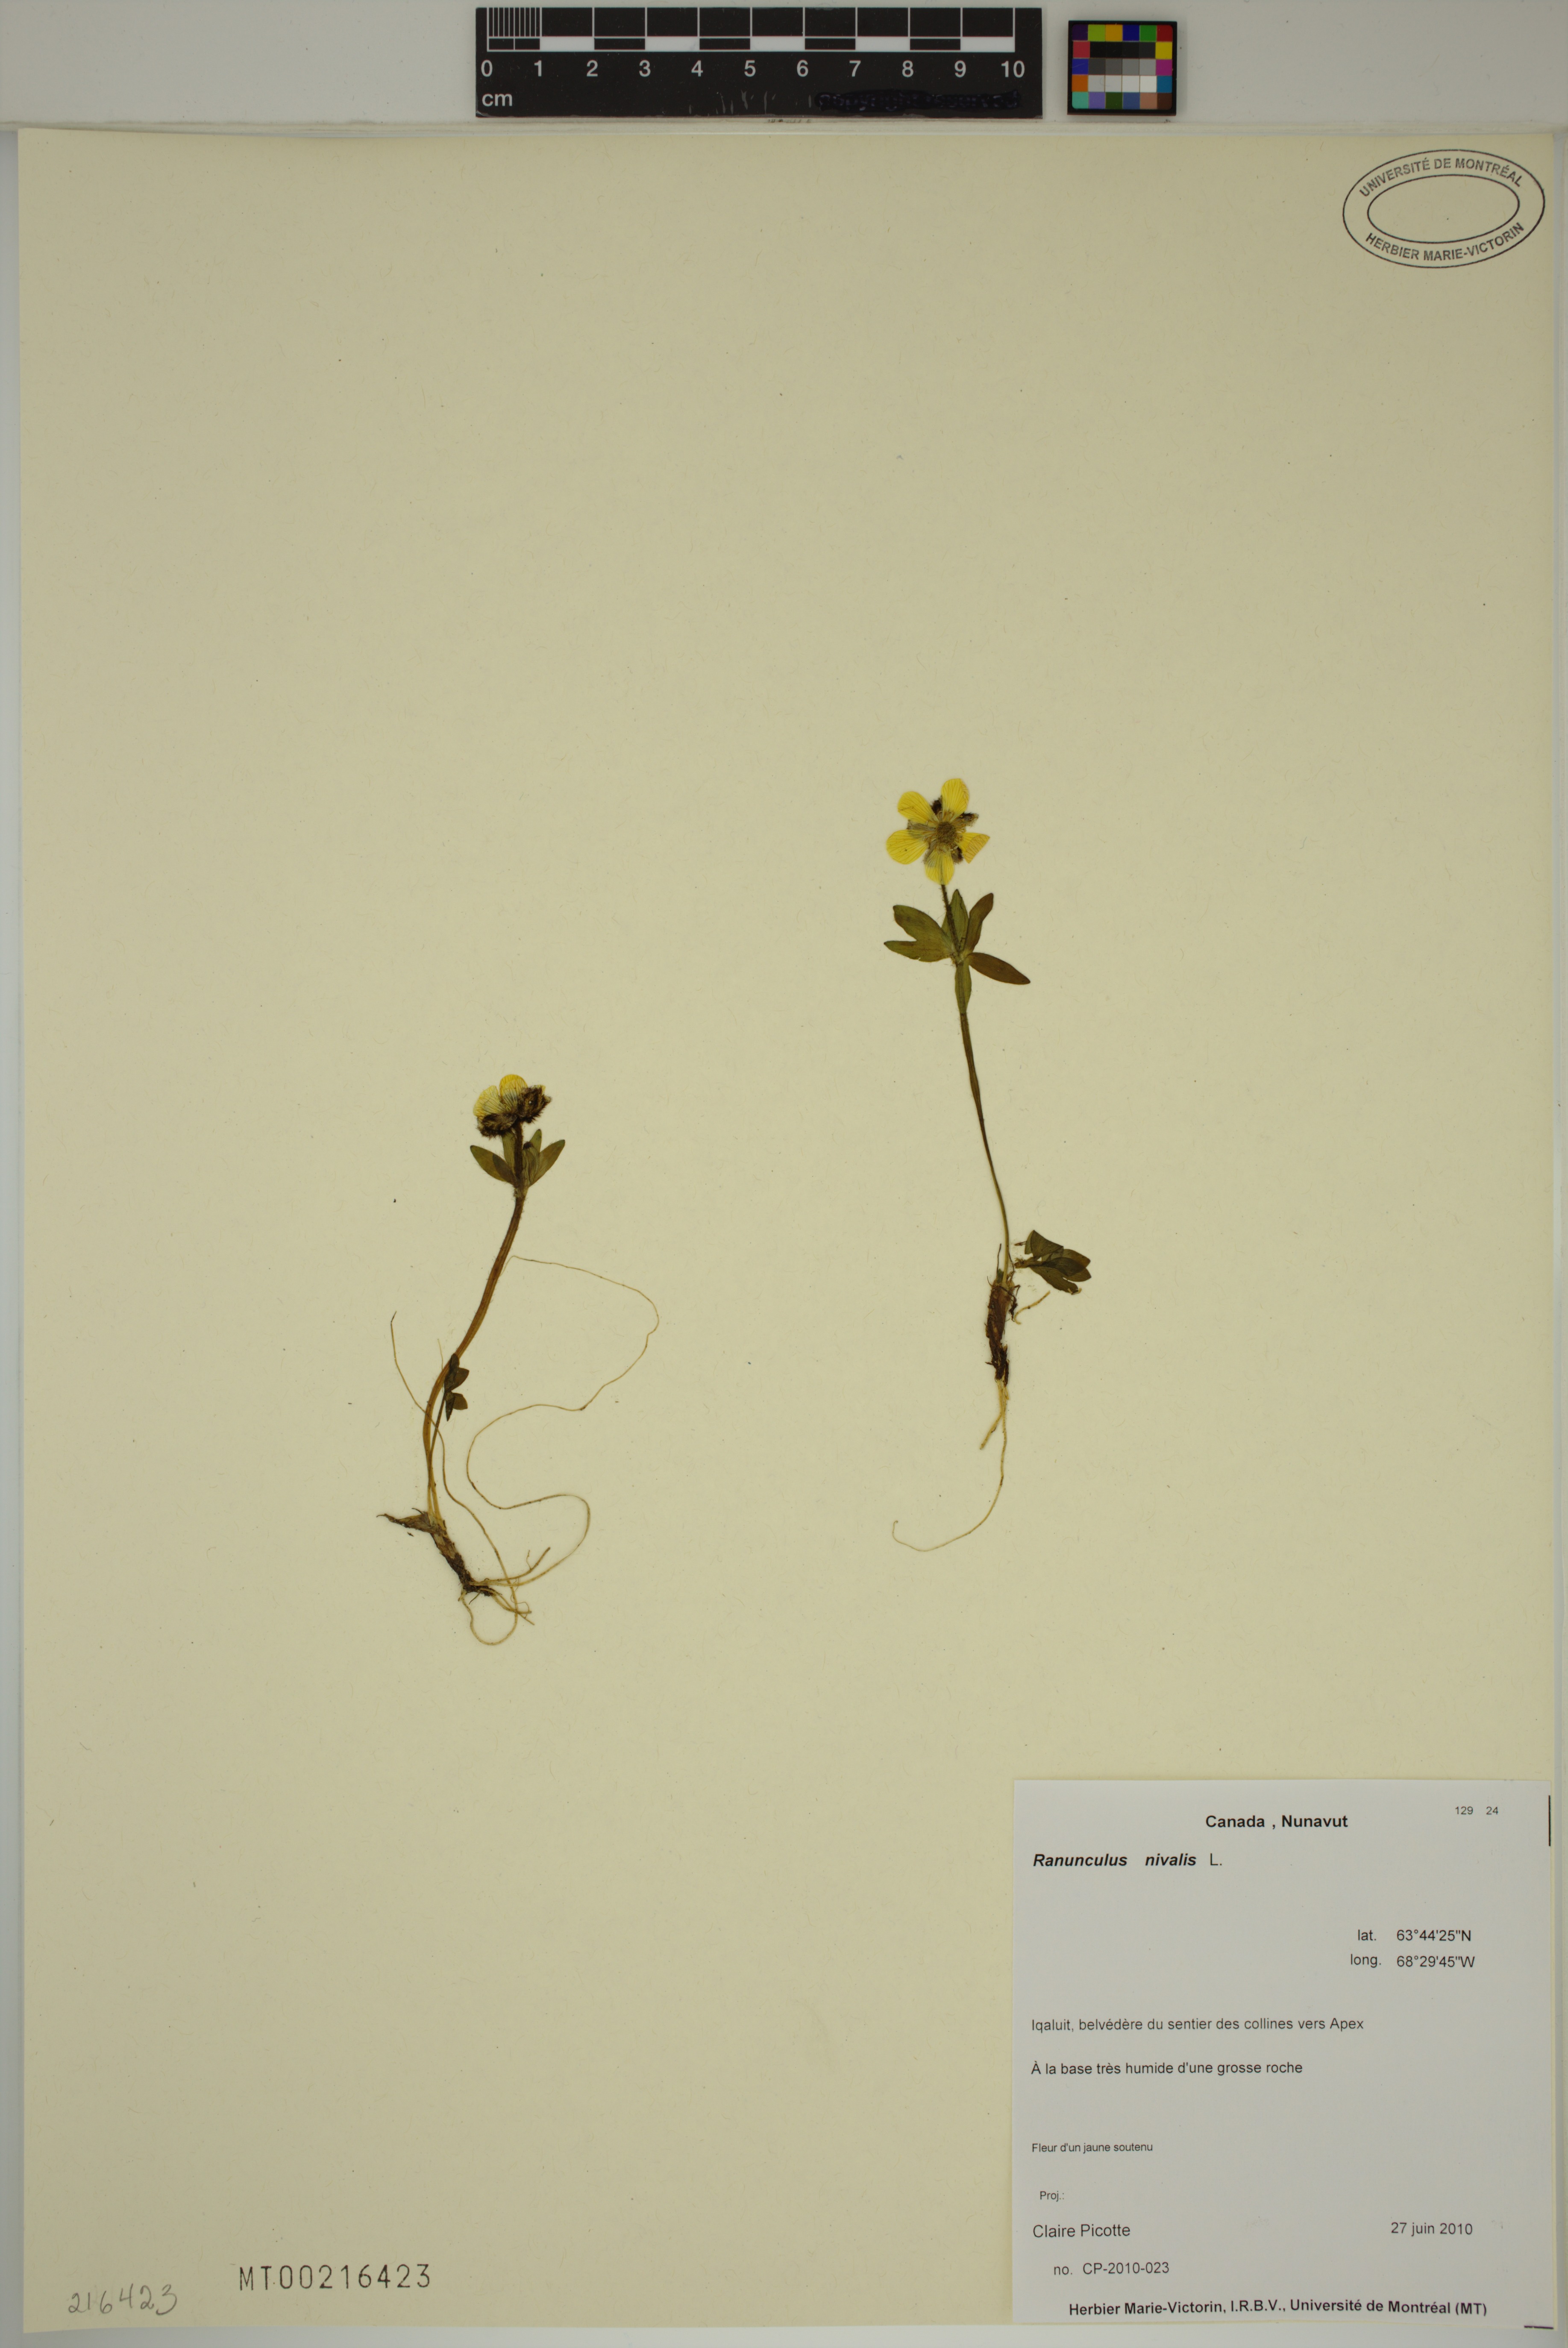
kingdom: Plantae
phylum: Tracheophyta
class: Magnoliopsida
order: Ranunculales
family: Ranunculaceae
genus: Ranunculus
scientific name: Ranunculus nivalis
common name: Snow buttercup
